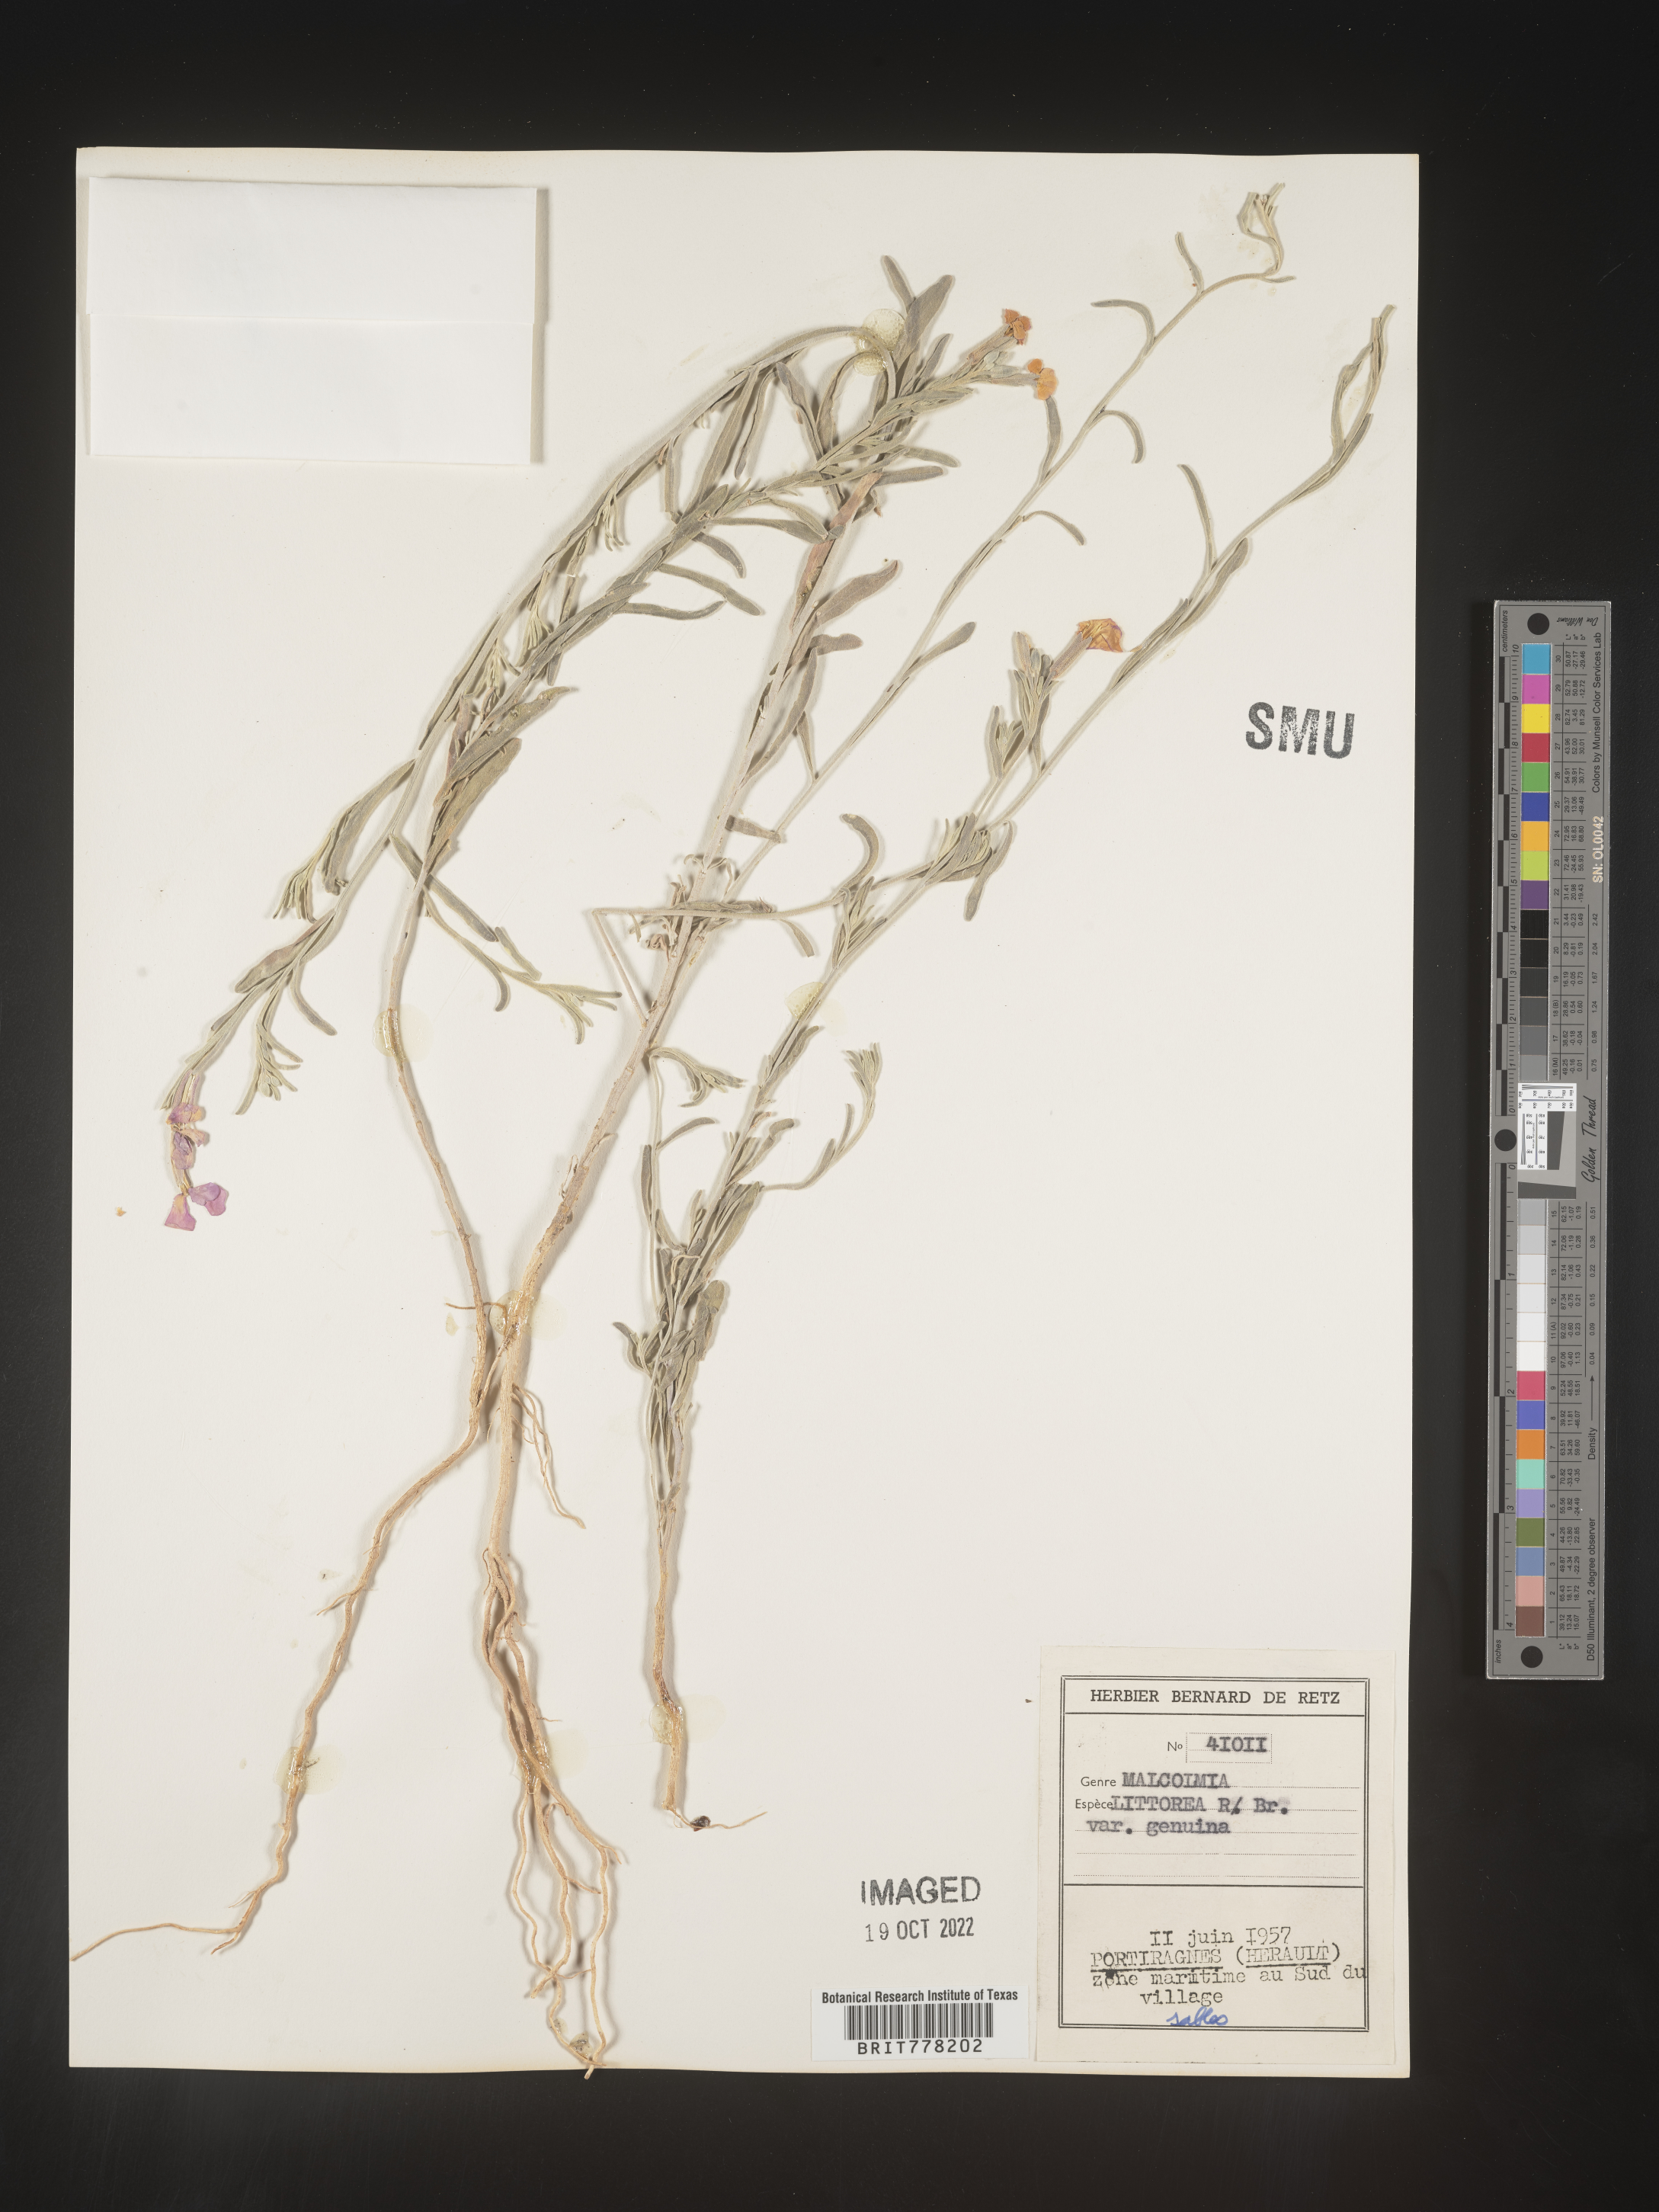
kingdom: Plantae
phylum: Tracheophyta
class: Magnoliopsida
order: Brassicales
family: Brassicaceae
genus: Malcolmia
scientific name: Malcolmia
